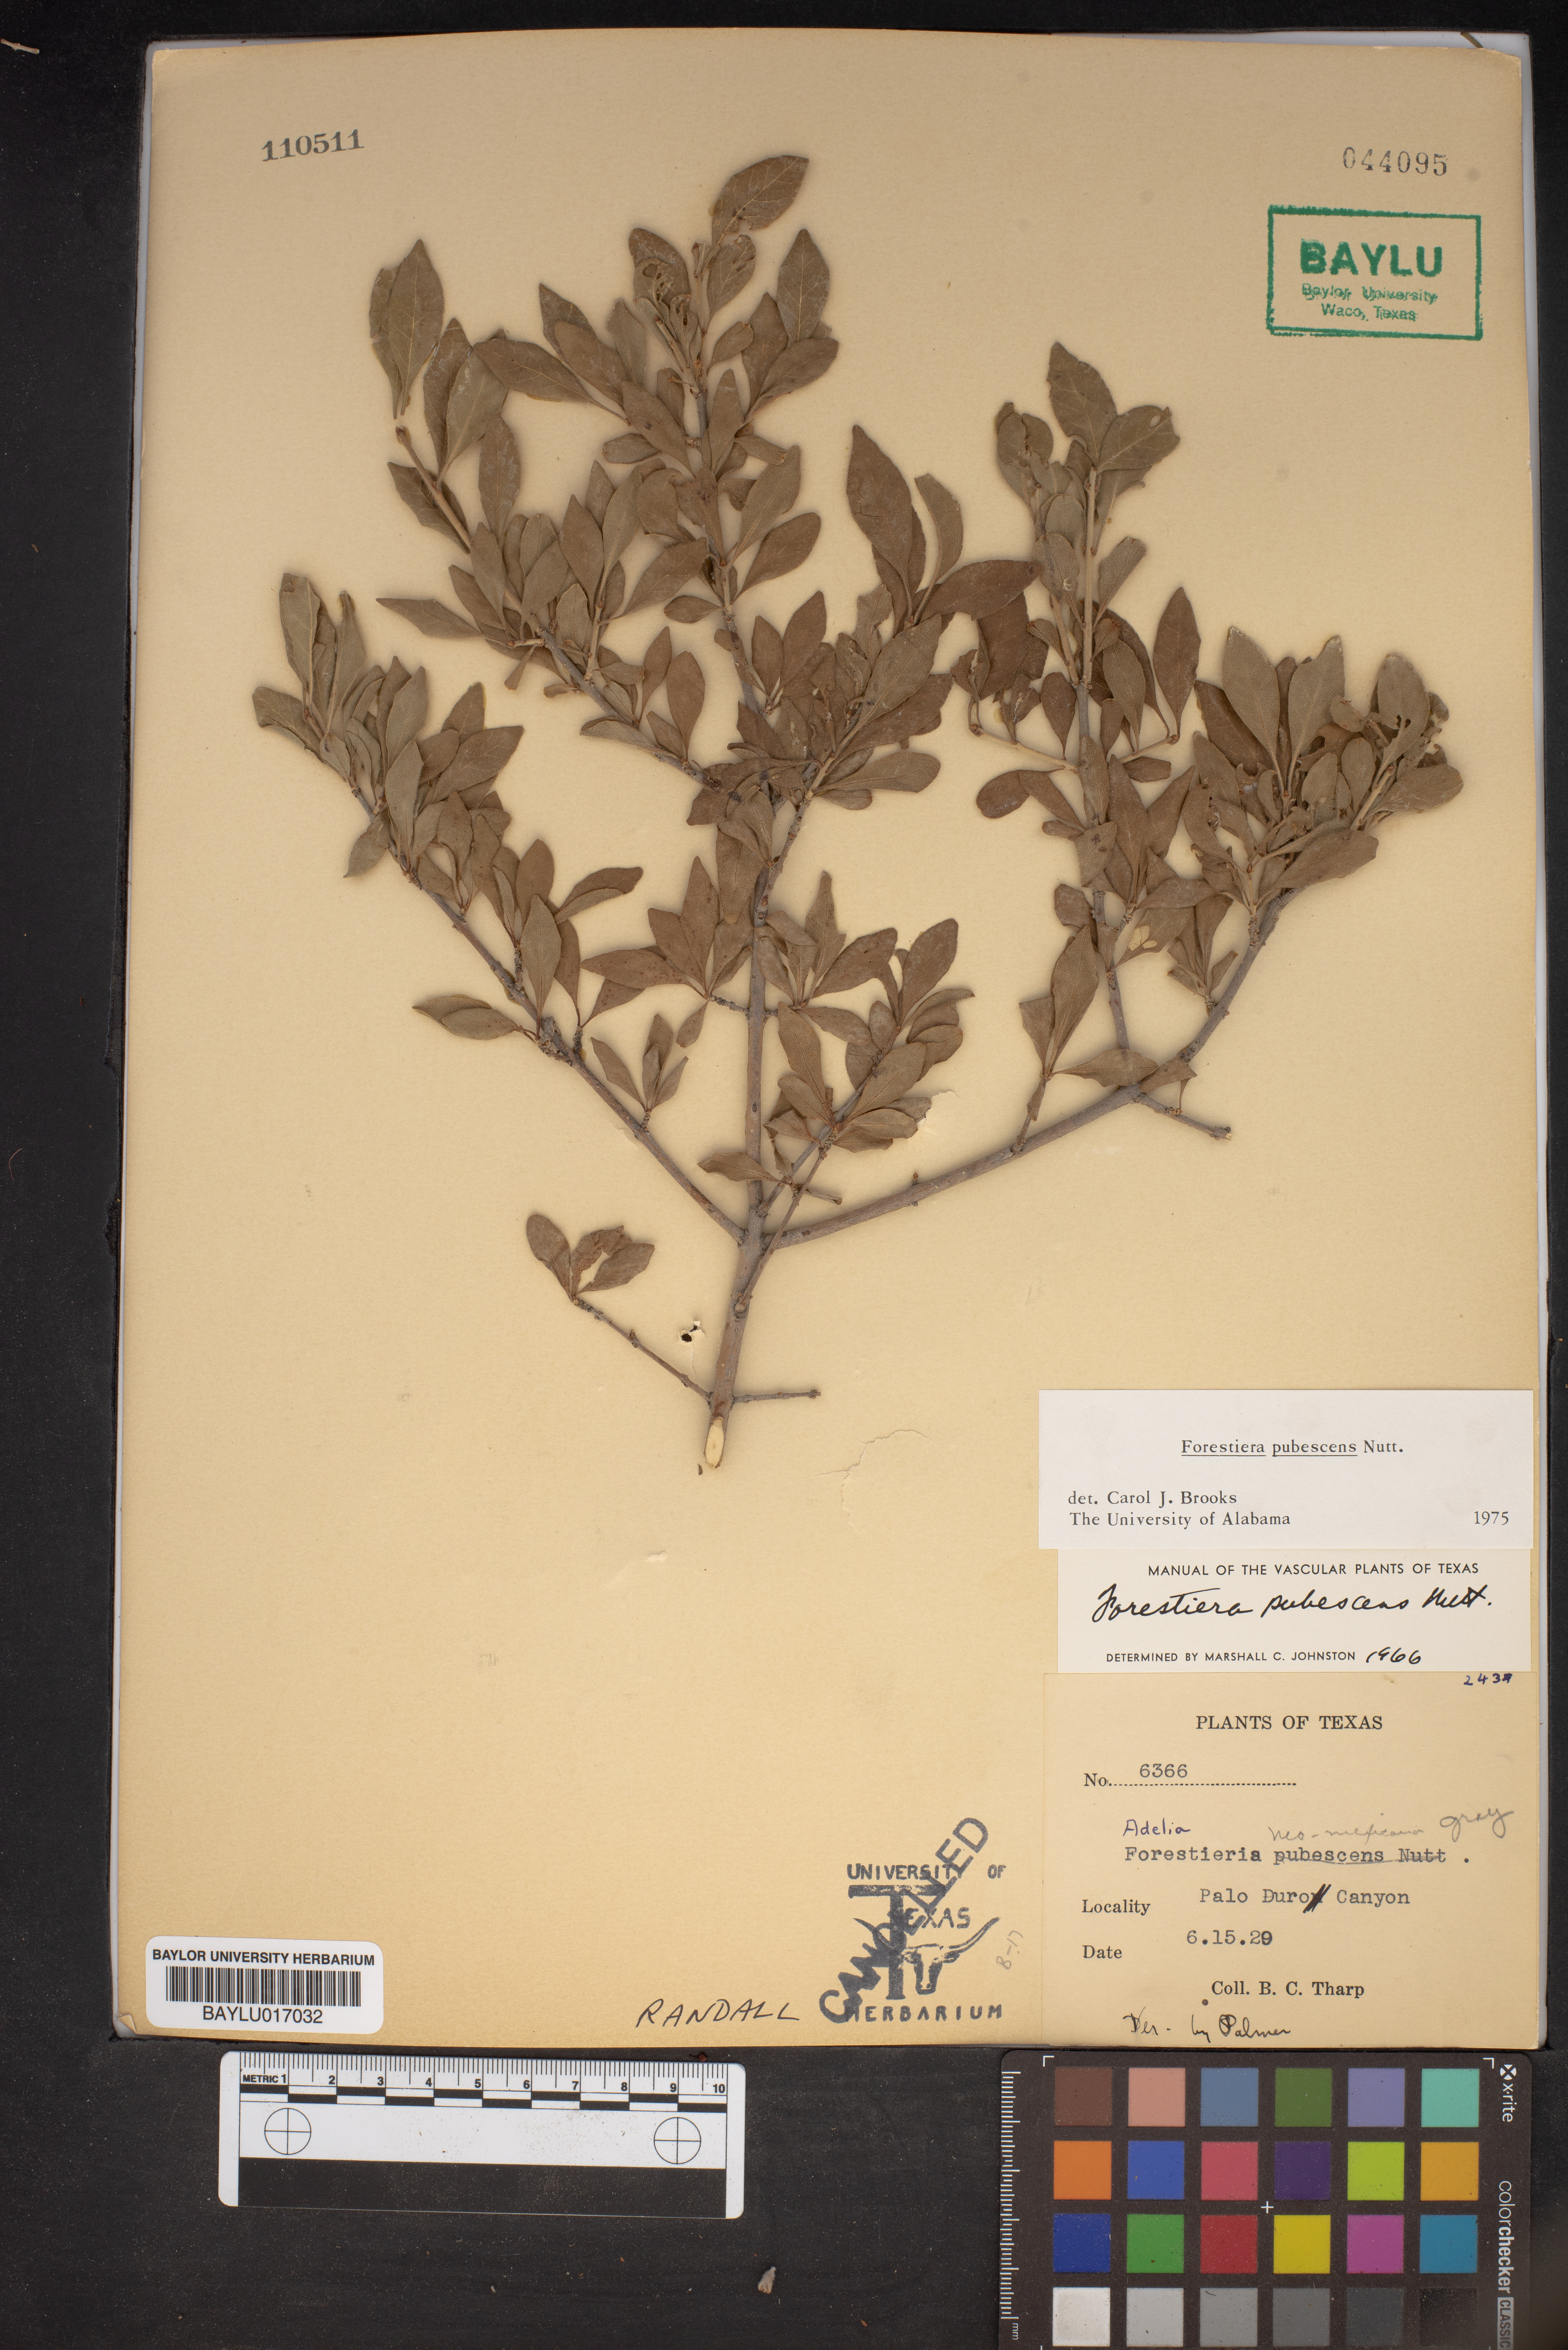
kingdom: Plantae
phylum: Tracheophyta
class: Magnoliopsida
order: Lamiales
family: Oleaceae
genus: Forestiera
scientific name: Forestiera pubescens
